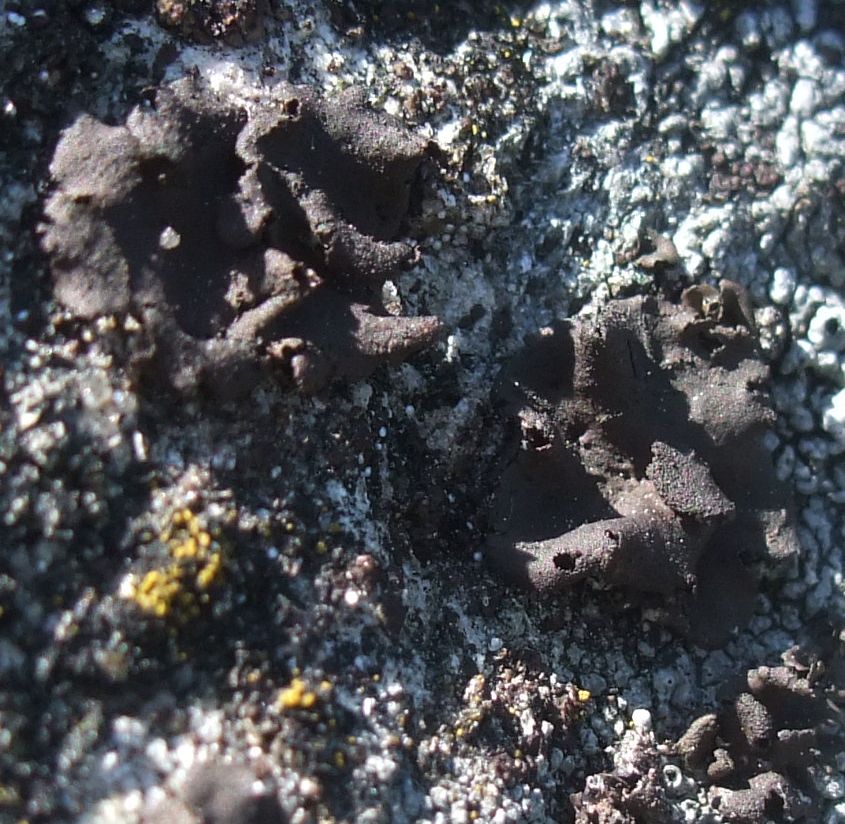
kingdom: Fungi
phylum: Ascomycota
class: Lecanoromycetes
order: Umbilicariales
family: Umbilicariaceae
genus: Umbilicaria
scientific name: Umbilicaria deusta
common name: kliddet navlelav
